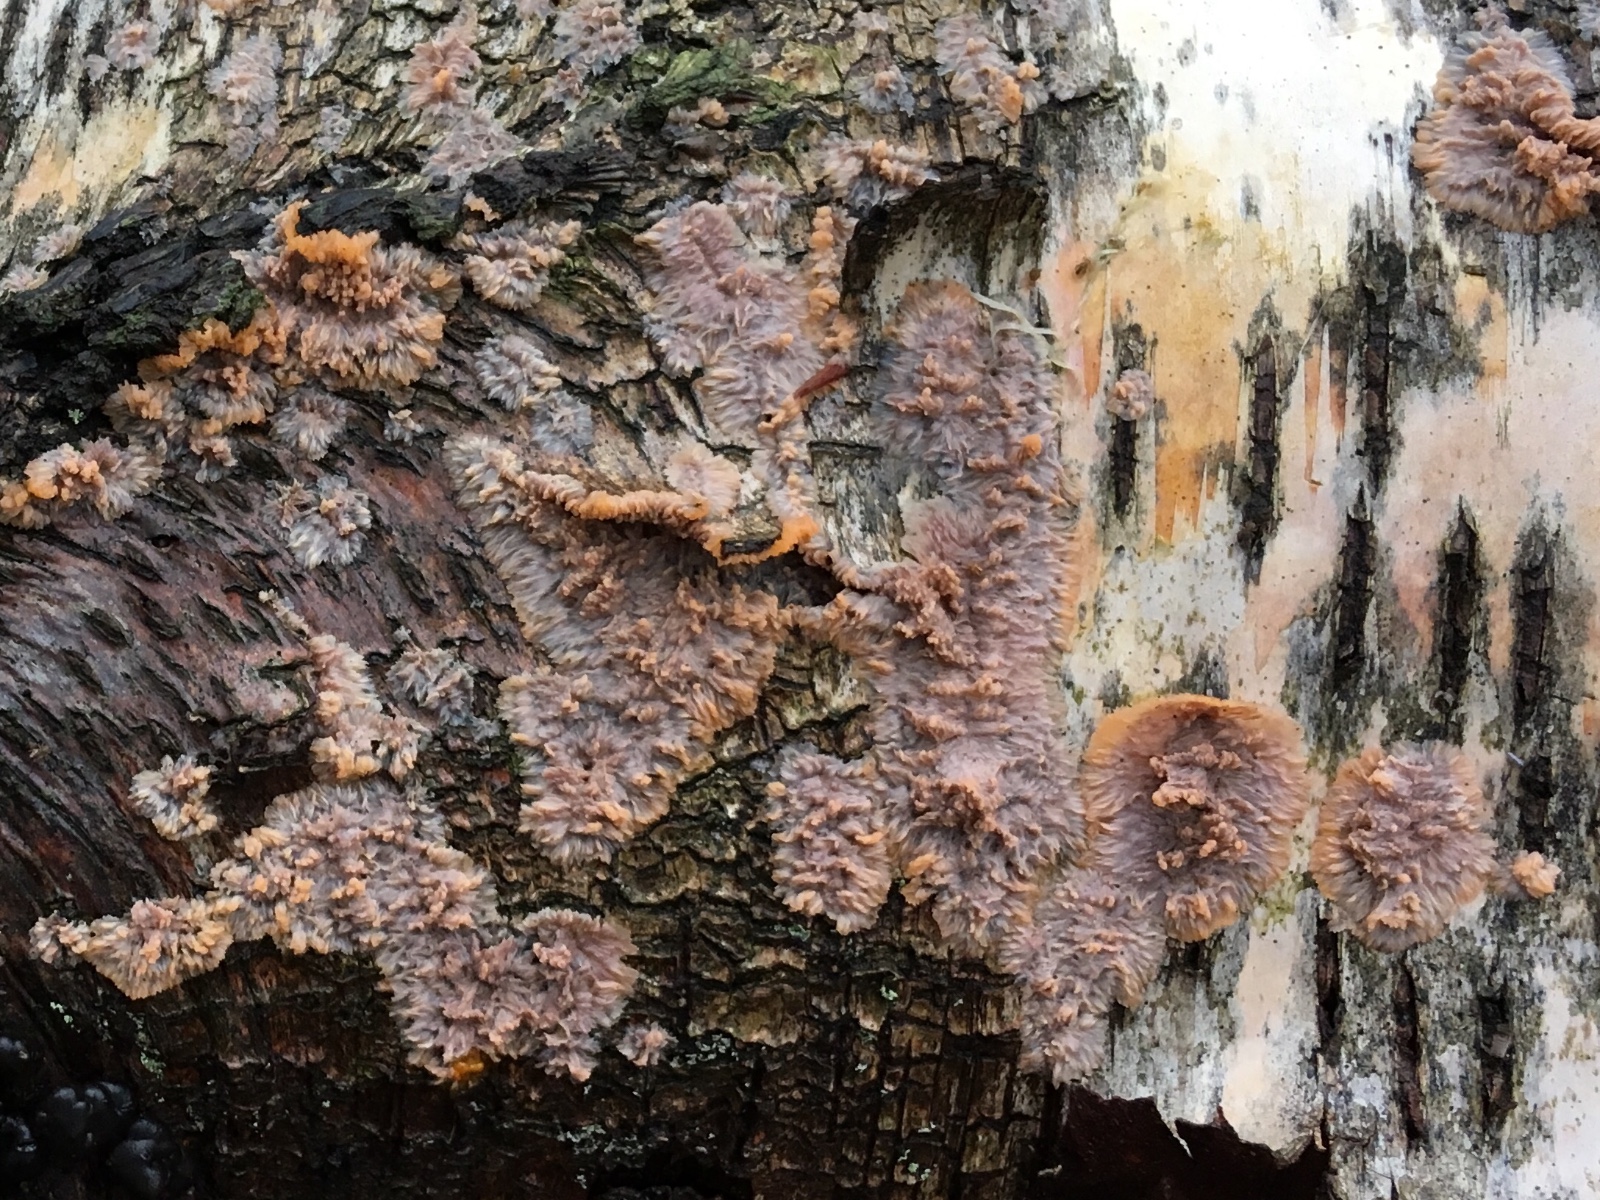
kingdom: Fungi
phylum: Basidiomycota
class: Agaricomycetes
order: Polyporales
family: Meruliaceae
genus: Phlebia
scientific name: Phlebia radiata
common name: stråle-åresvamp
